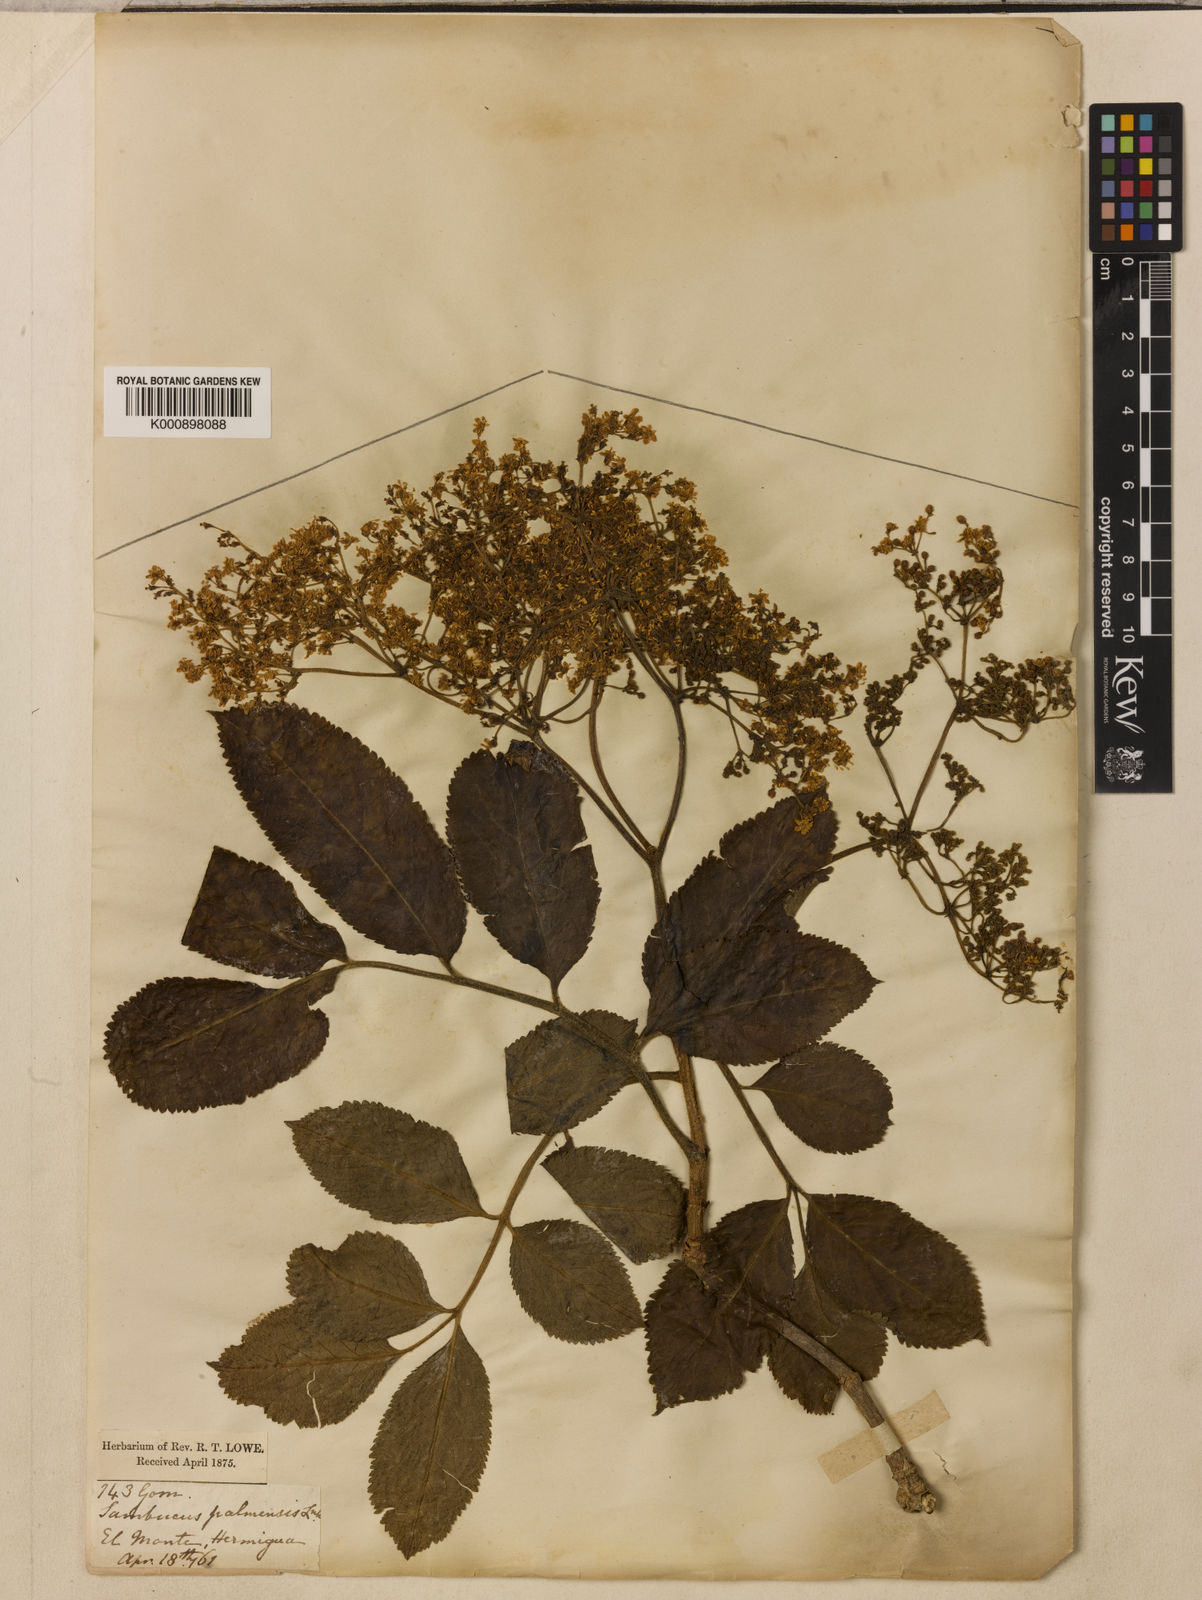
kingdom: Plantae
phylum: Tracheophyta
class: Magnoliopsida
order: Dipsacales
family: Viburnaceae
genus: Sambucus
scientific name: Sambucus palmensis
